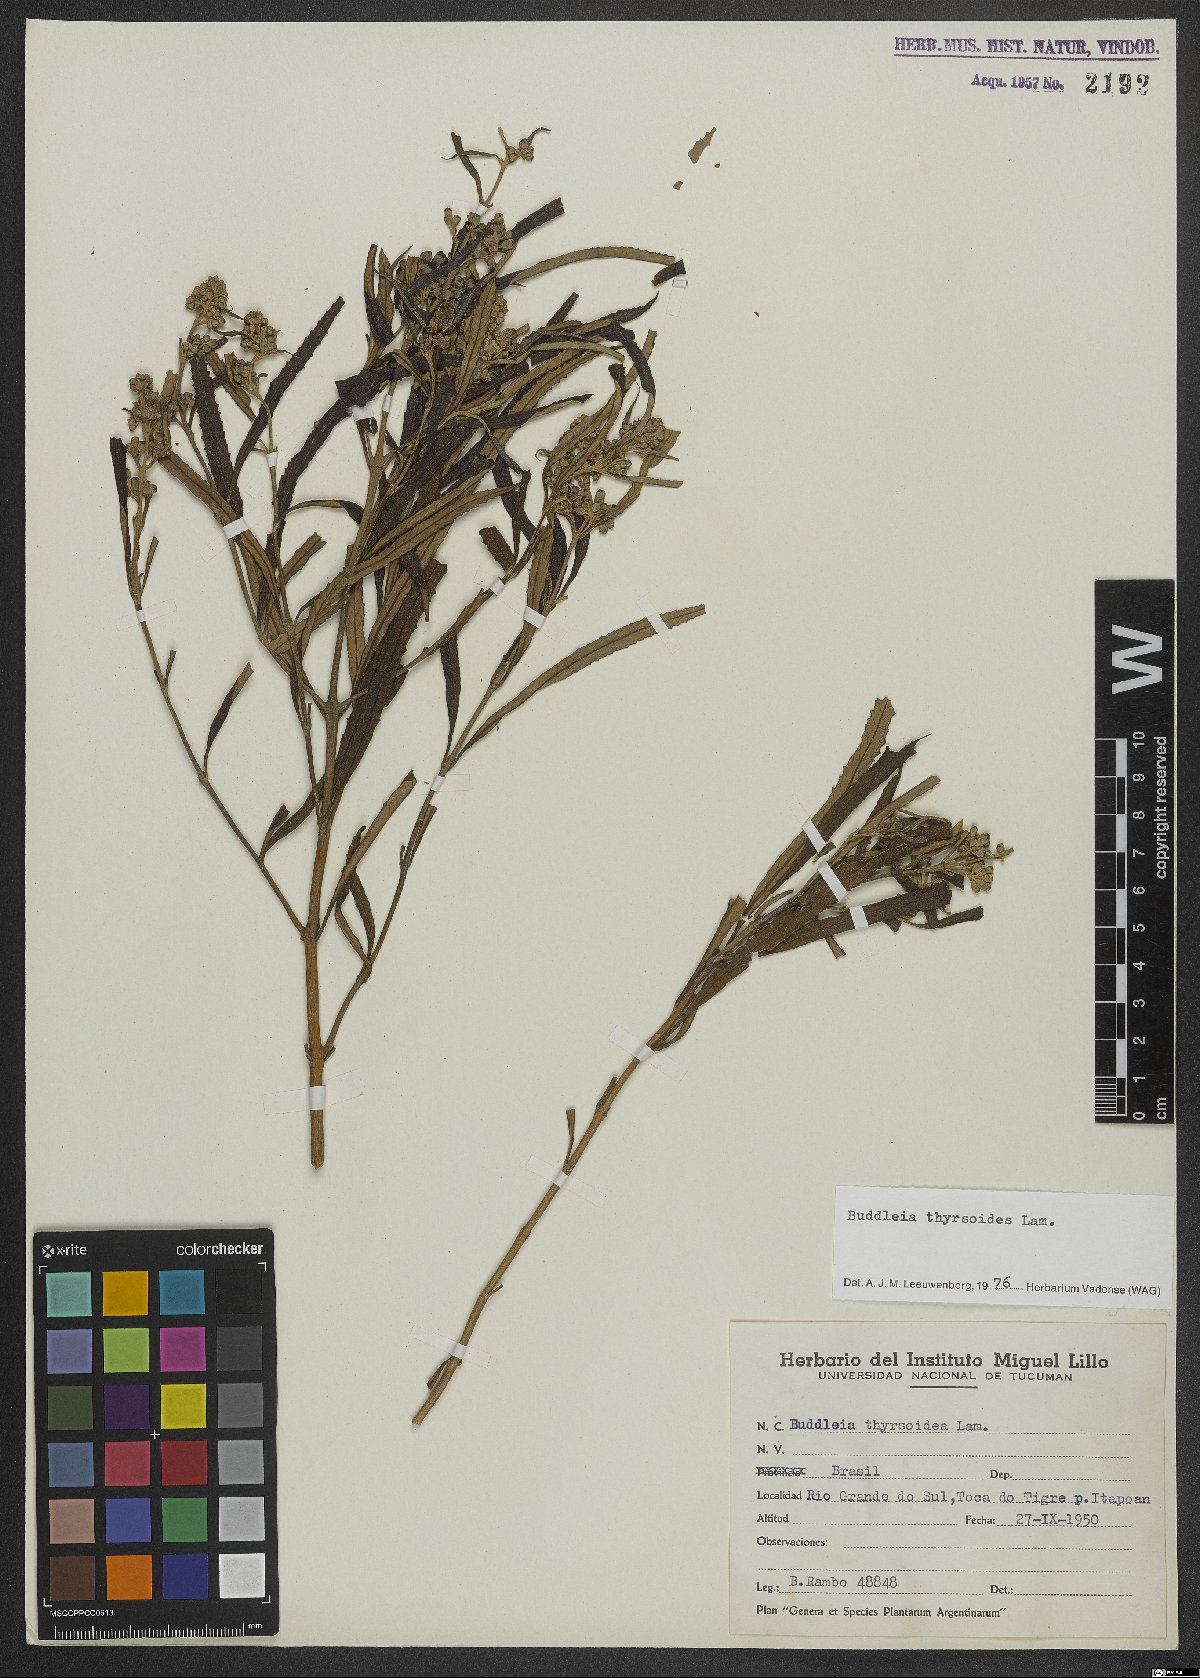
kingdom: Plantae
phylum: Tracheophyta
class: Magnoliopsida
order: Lamiales
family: Scrophulariaceae
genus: Buddleja
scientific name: Buddleja thyrsoides
